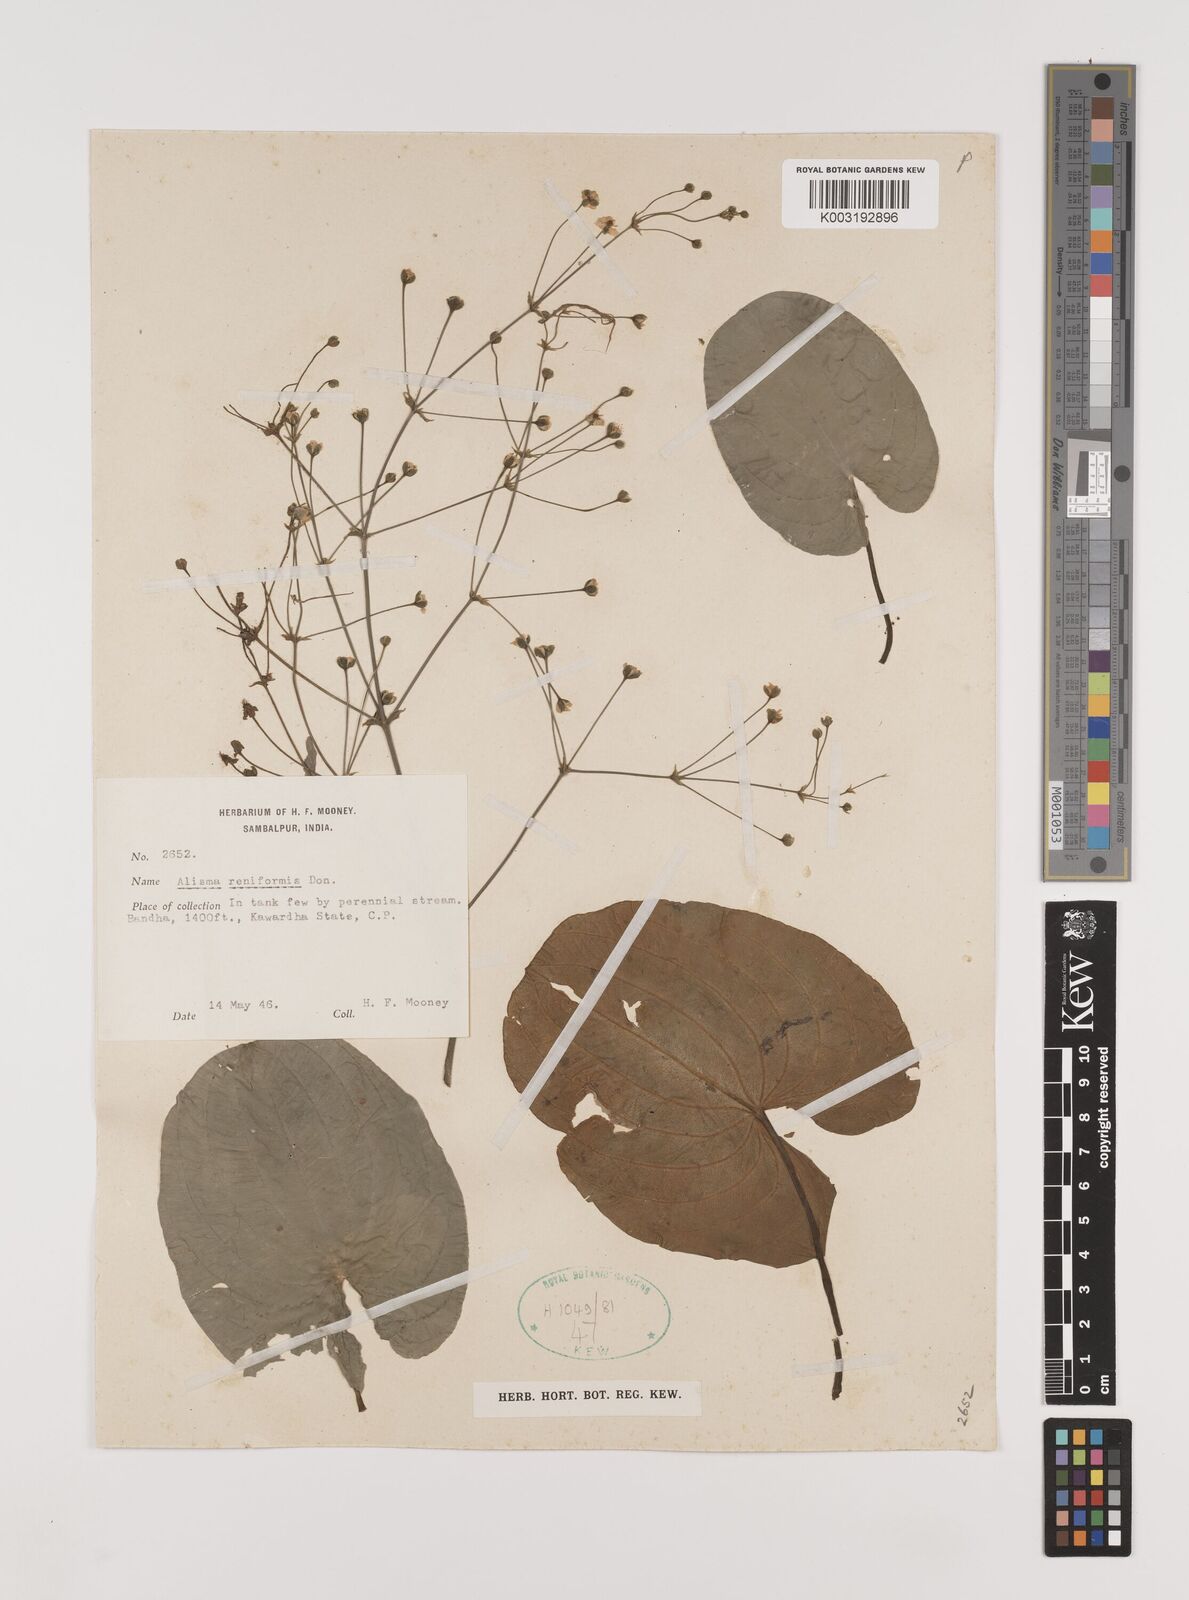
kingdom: Plantae
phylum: Tracheophyta
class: Liliopsida
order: Alismatales
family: Alismataceae
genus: Caldesia
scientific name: Caldesia parnassifolia
